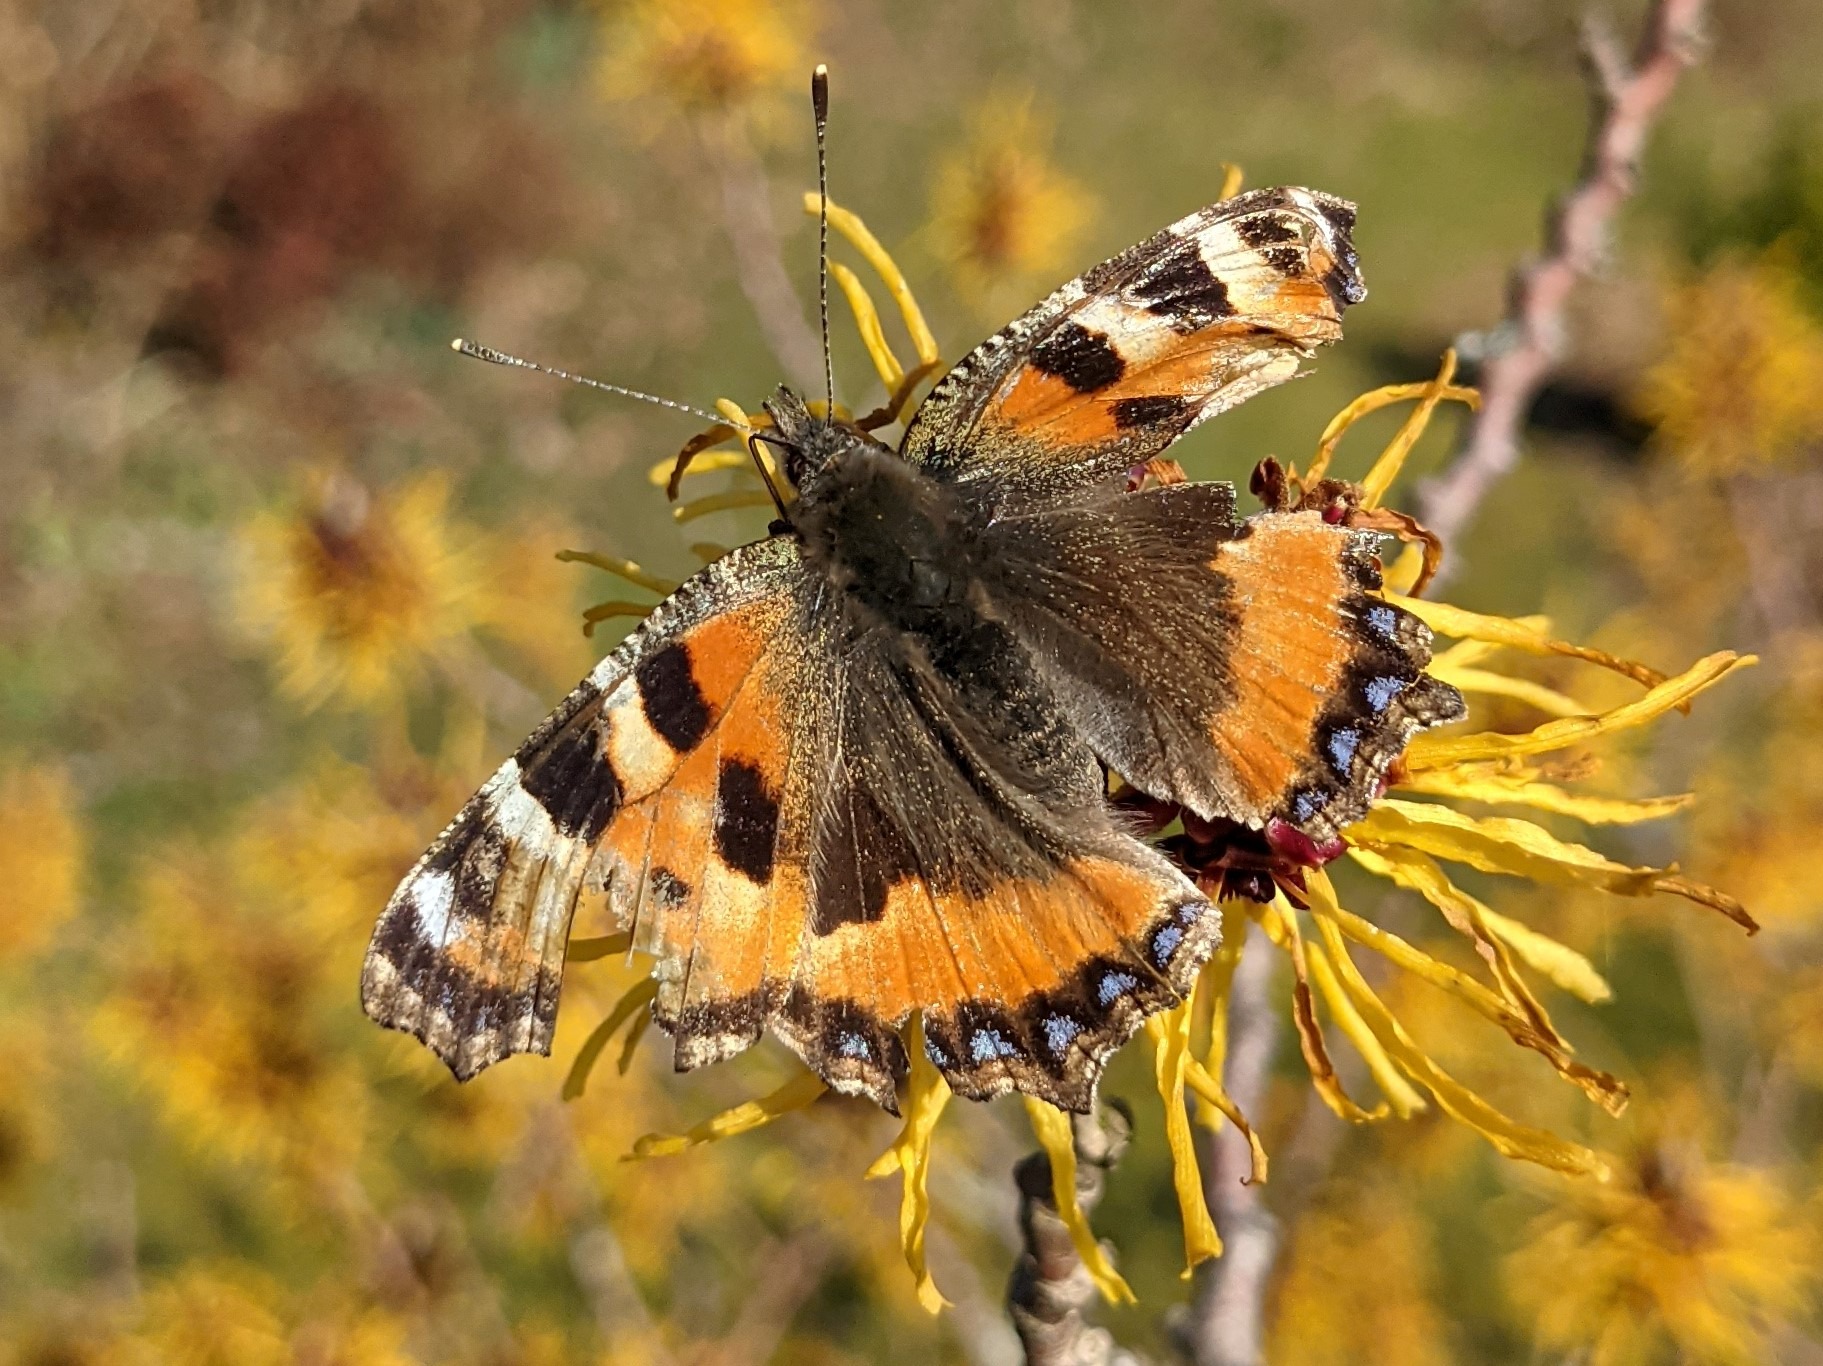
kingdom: Animalia
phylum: Arthropoda
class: Insecta
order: Lepidoptera
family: Nymphalidae
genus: Aglais
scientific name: Aglais urticae
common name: Nældens takvinge
